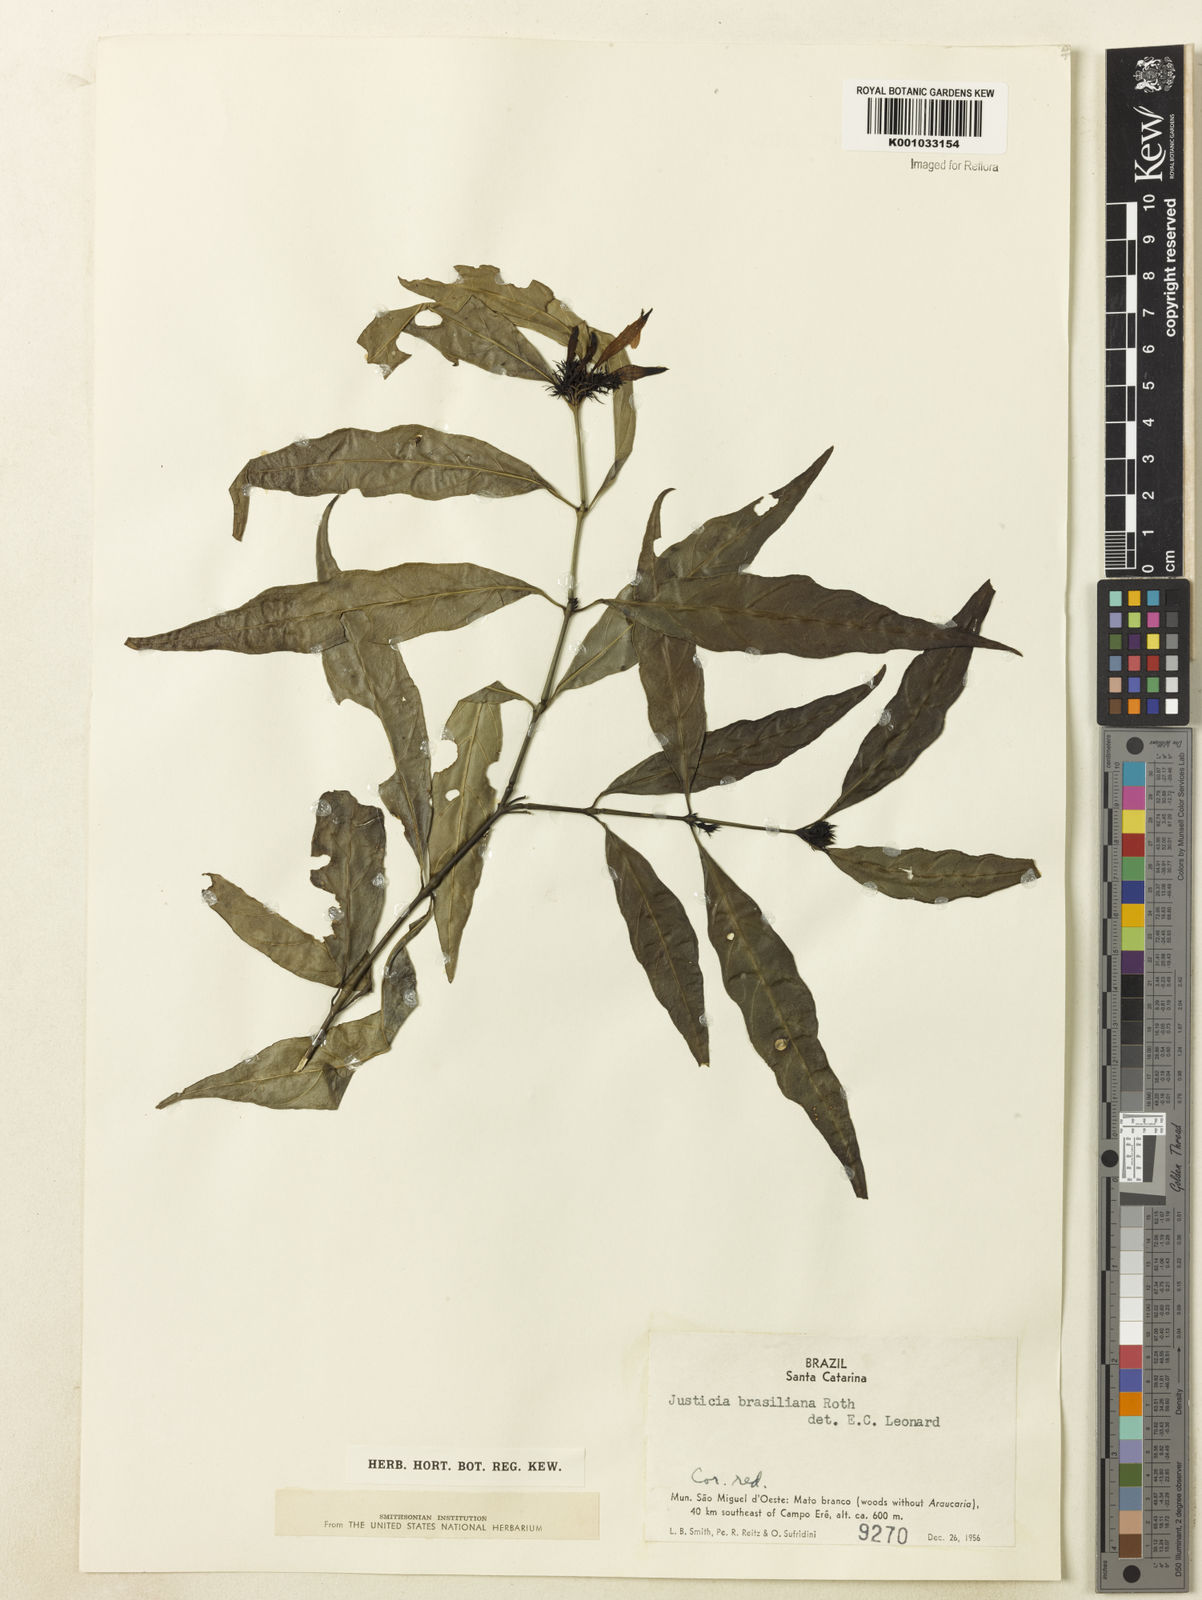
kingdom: Plantae
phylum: Tracheophyta
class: Magnoliopsida
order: Lamiales
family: Acanthaceae
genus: Justicia
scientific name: Justicia brasiliana
